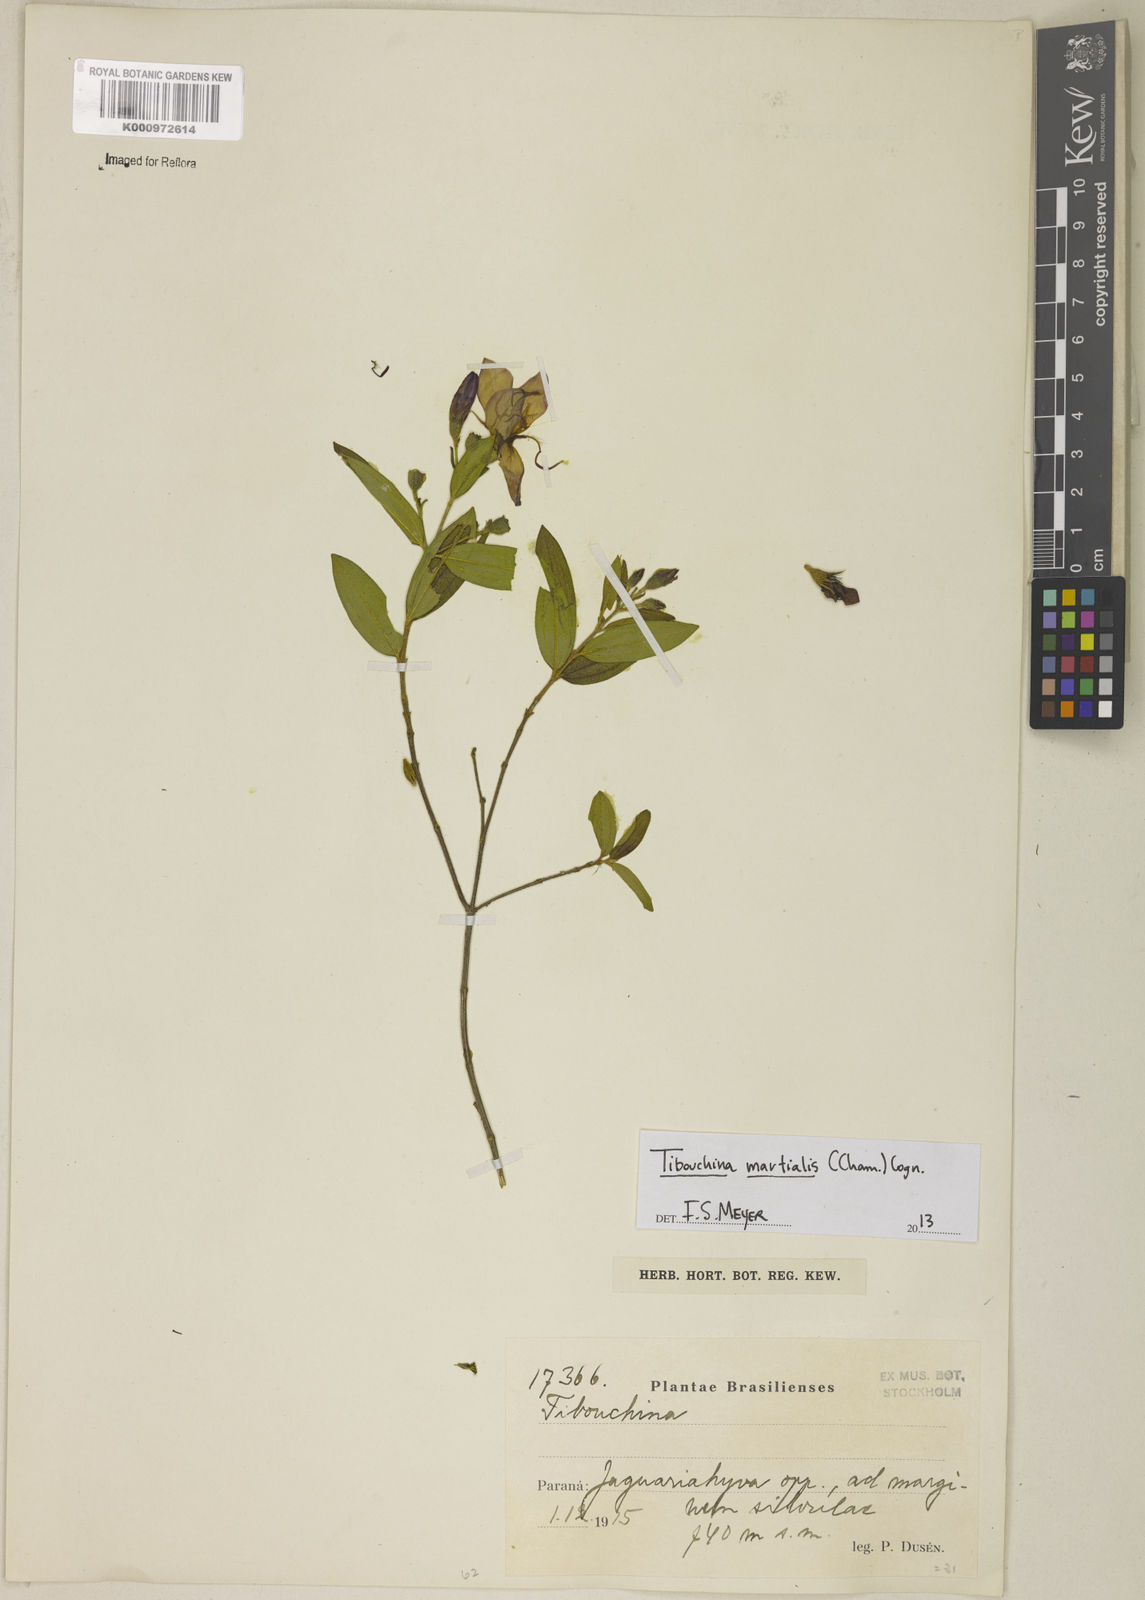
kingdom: Plantae
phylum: Tracheophyta
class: Magnoliopsida
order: Myrtales
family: Melastomataceae
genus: Pleroma
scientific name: Pleroma martiale
